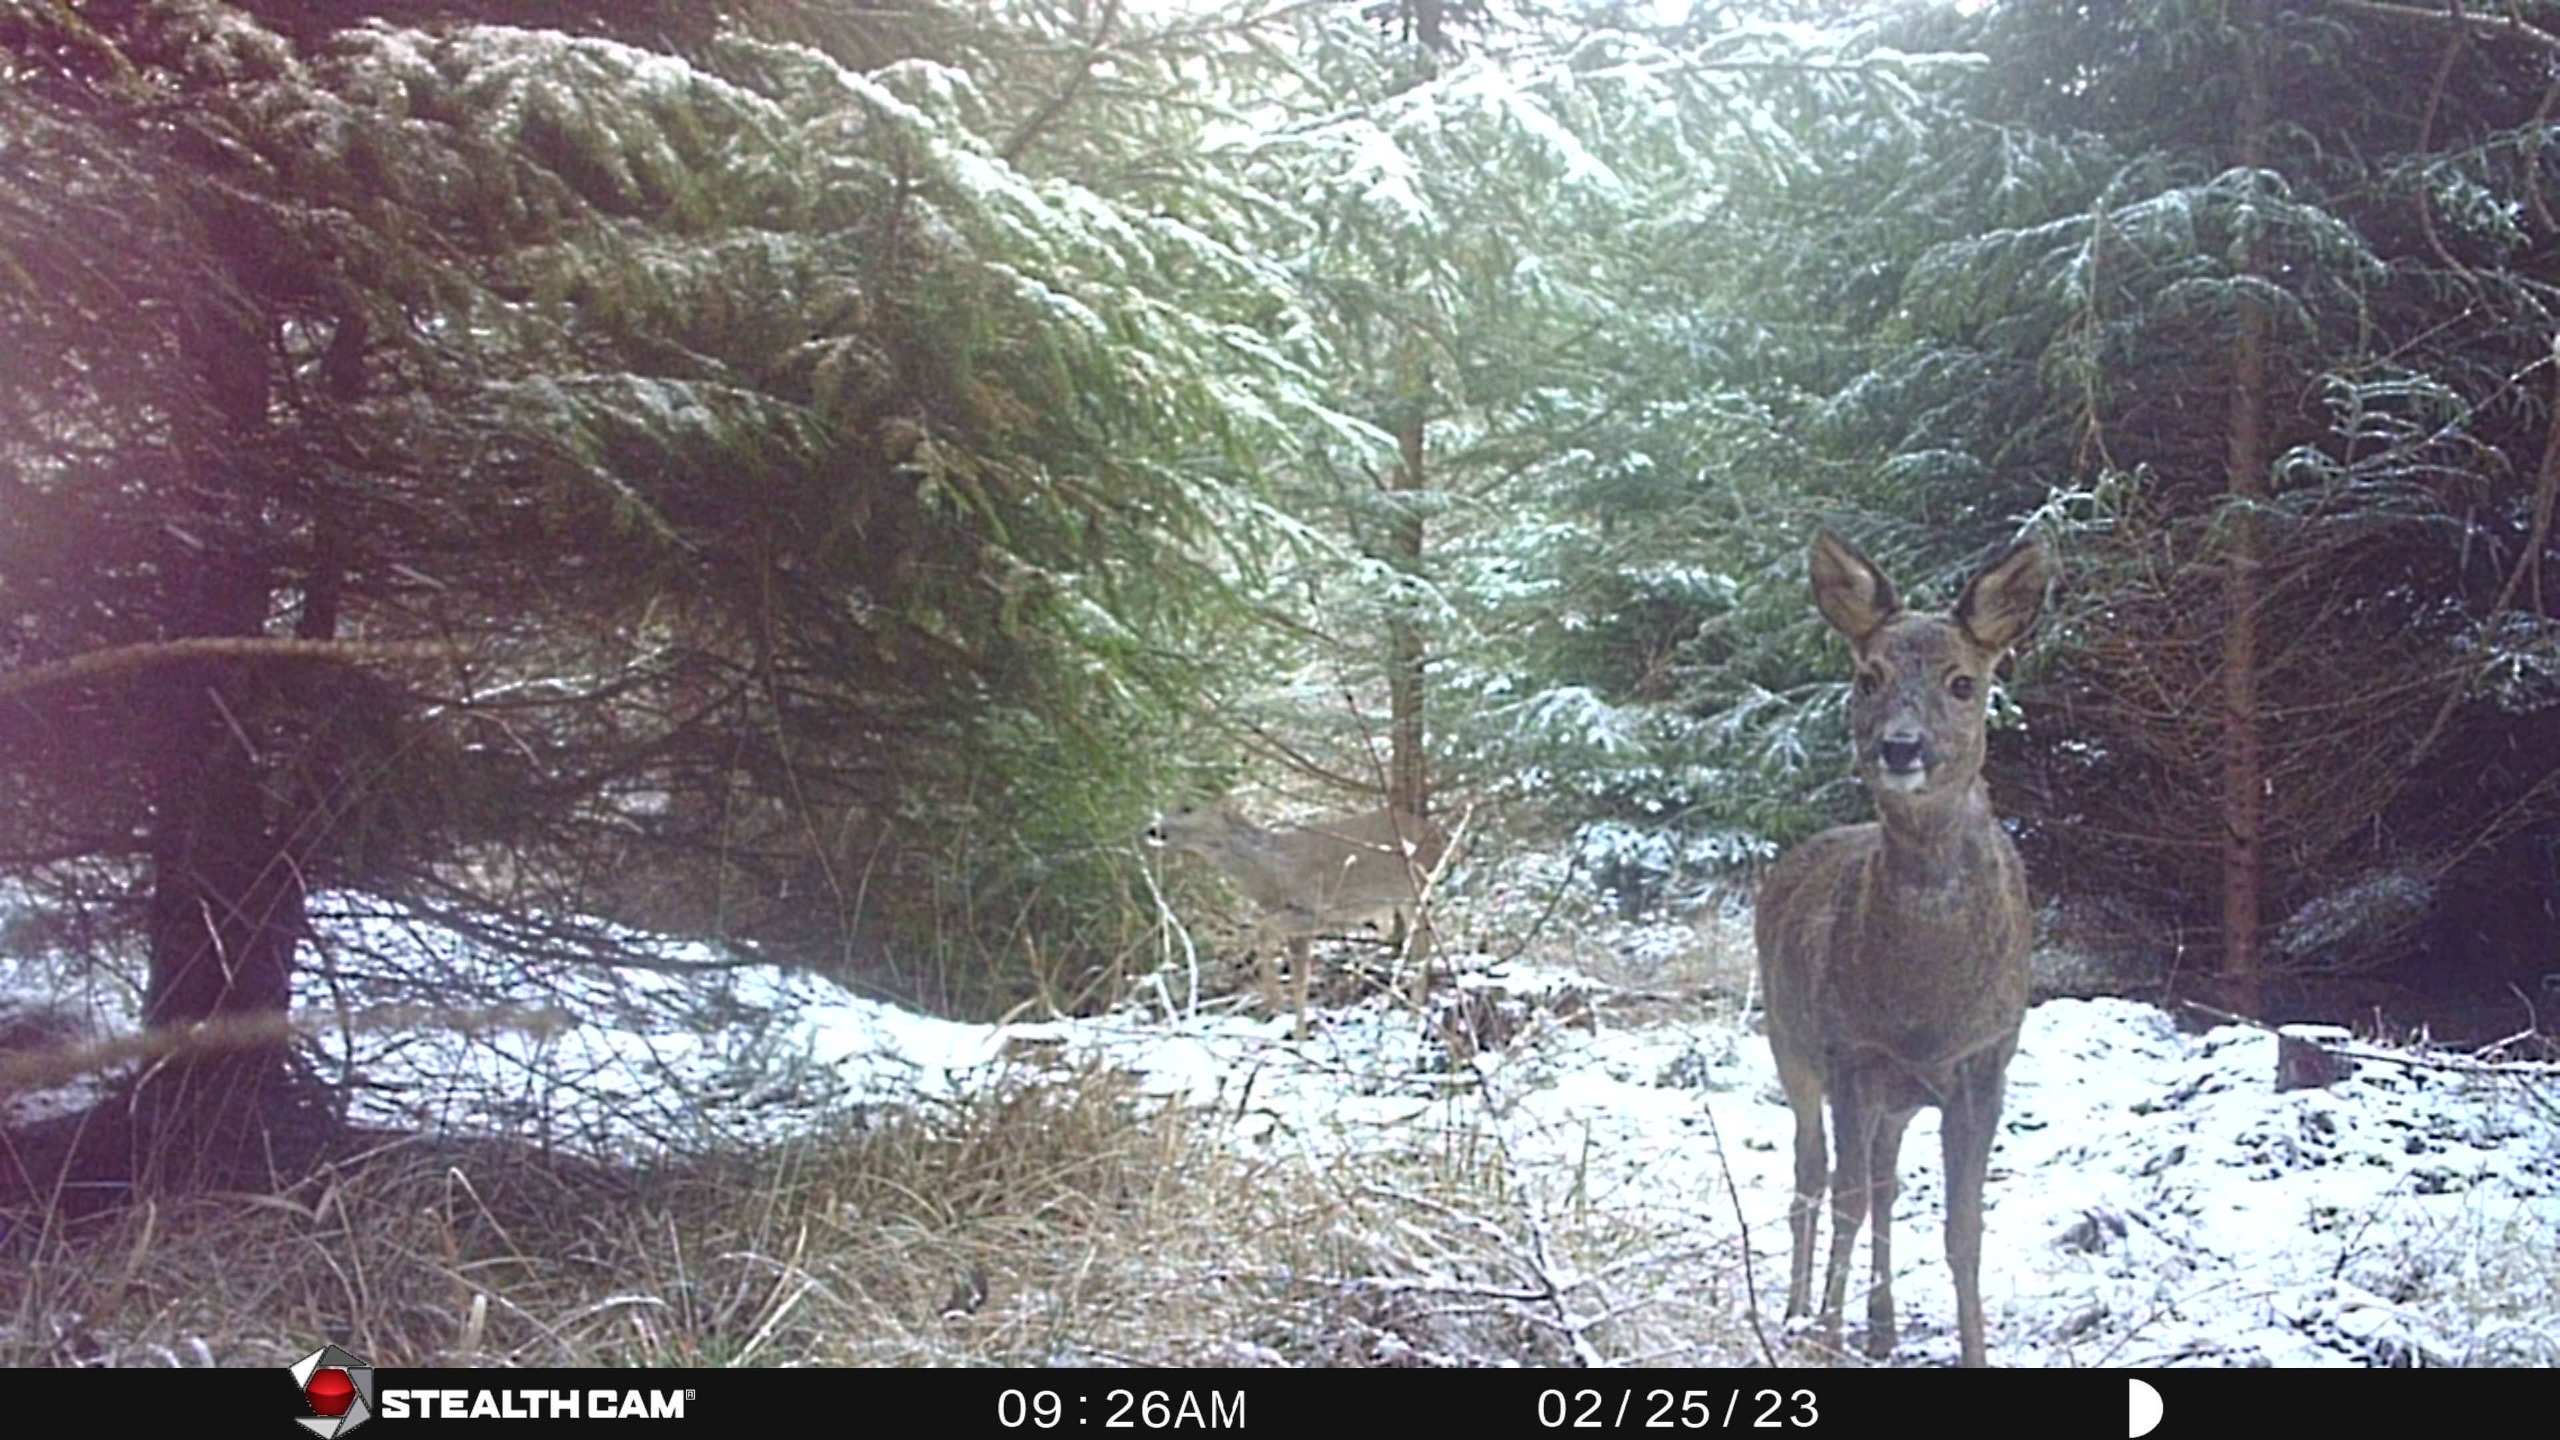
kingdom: Animalia
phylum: Chordata
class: Mammalia
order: Artiodactyla
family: Cervidae
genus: Capreolus
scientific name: Capreolus capreolus
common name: Rådyr
